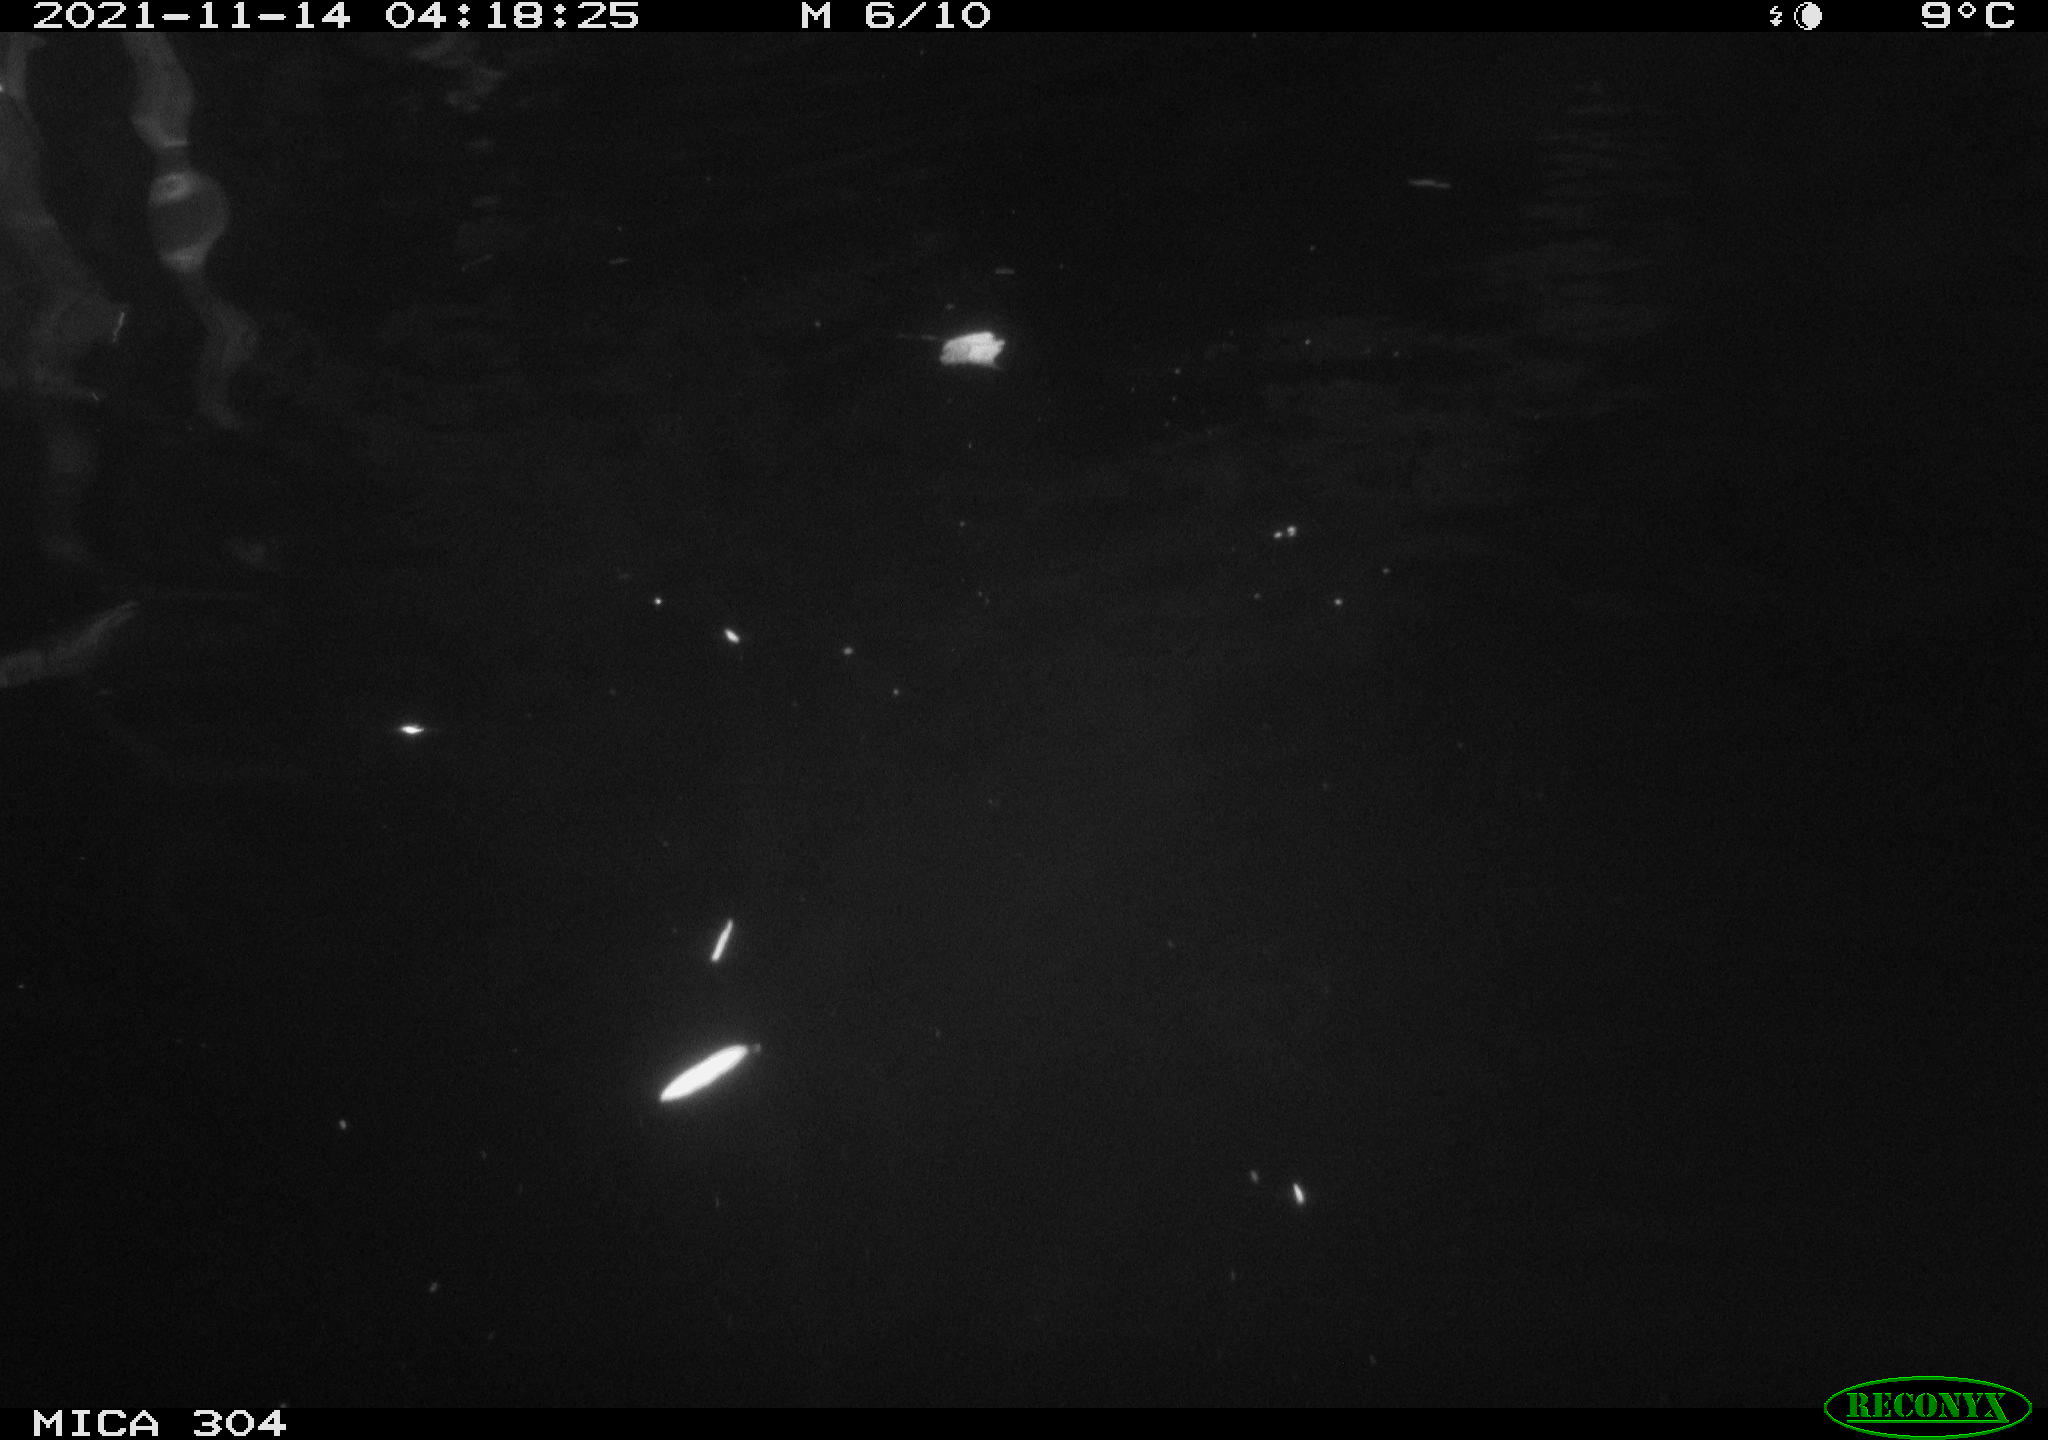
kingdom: Animalia
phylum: Chordata
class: Mammalia
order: Rodentia
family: Cricetidae
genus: Ondatra
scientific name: Ondatra zibethicus
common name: Muskrat
